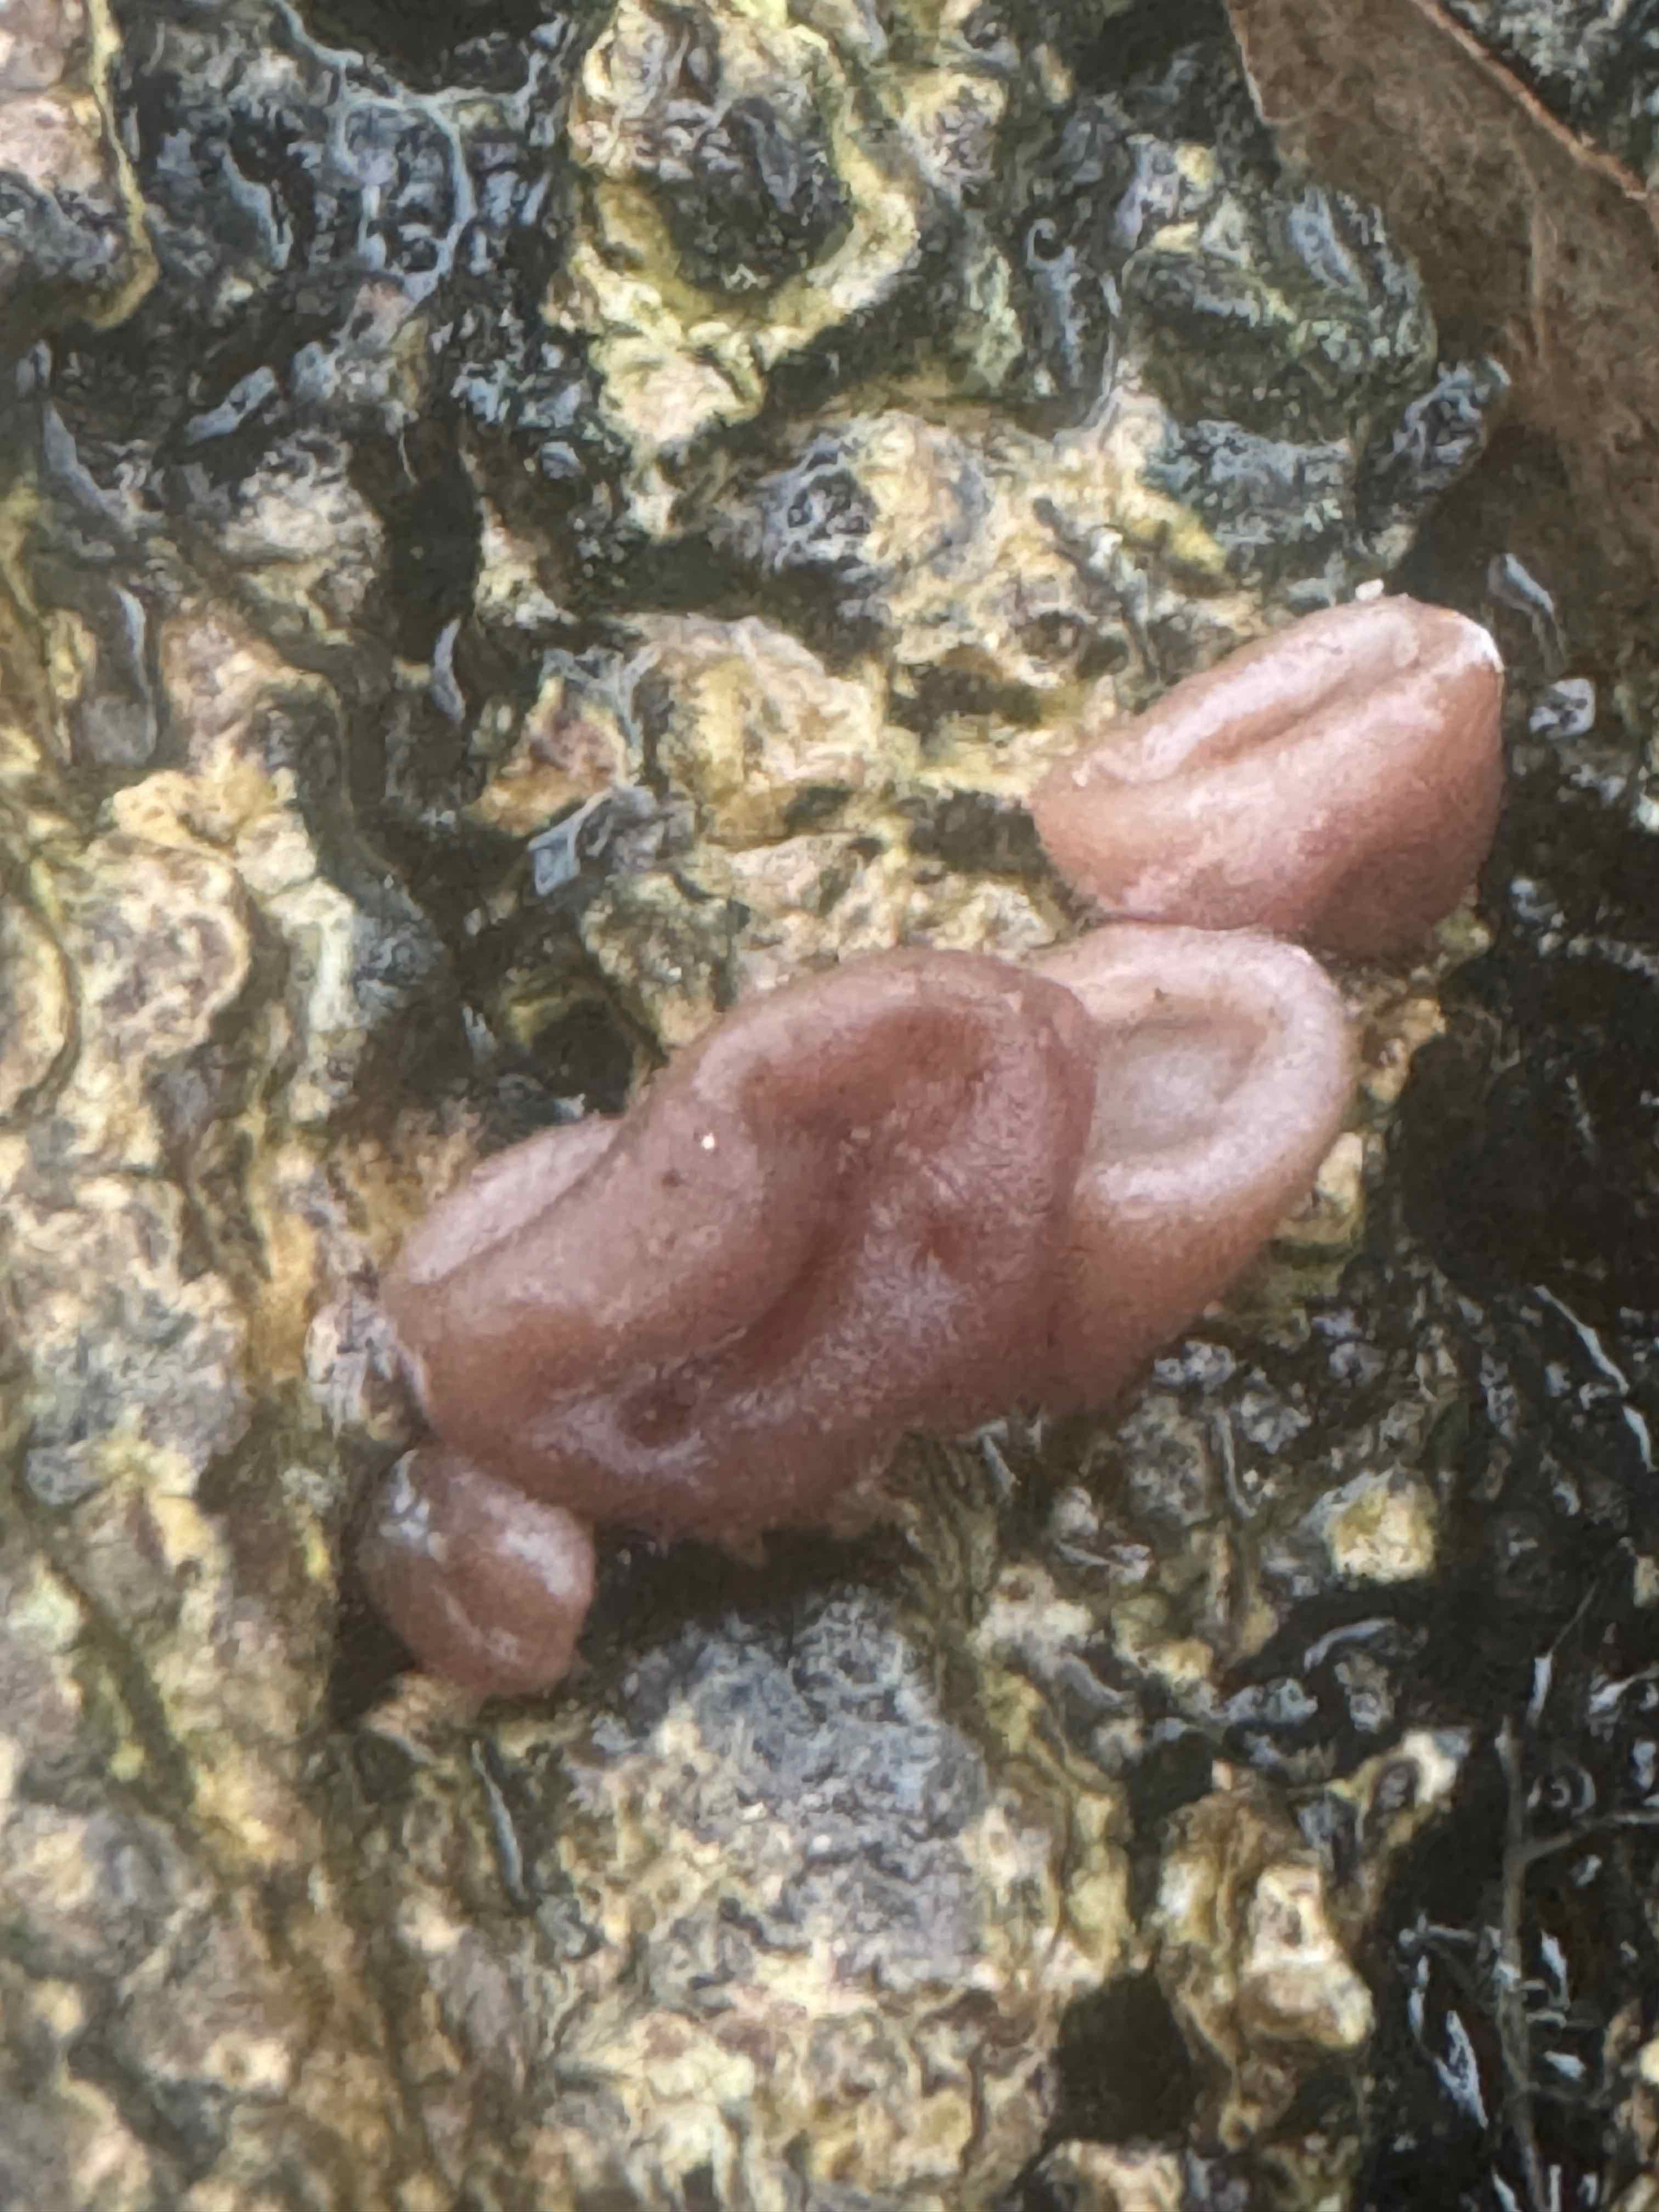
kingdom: Fungi
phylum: Basidiomycota
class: Agaricomycetes
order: Auriculariales
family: Auriculariaceae
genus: Auricularia
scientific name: Auricularia auricula-judae
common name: almindelig judasøre
